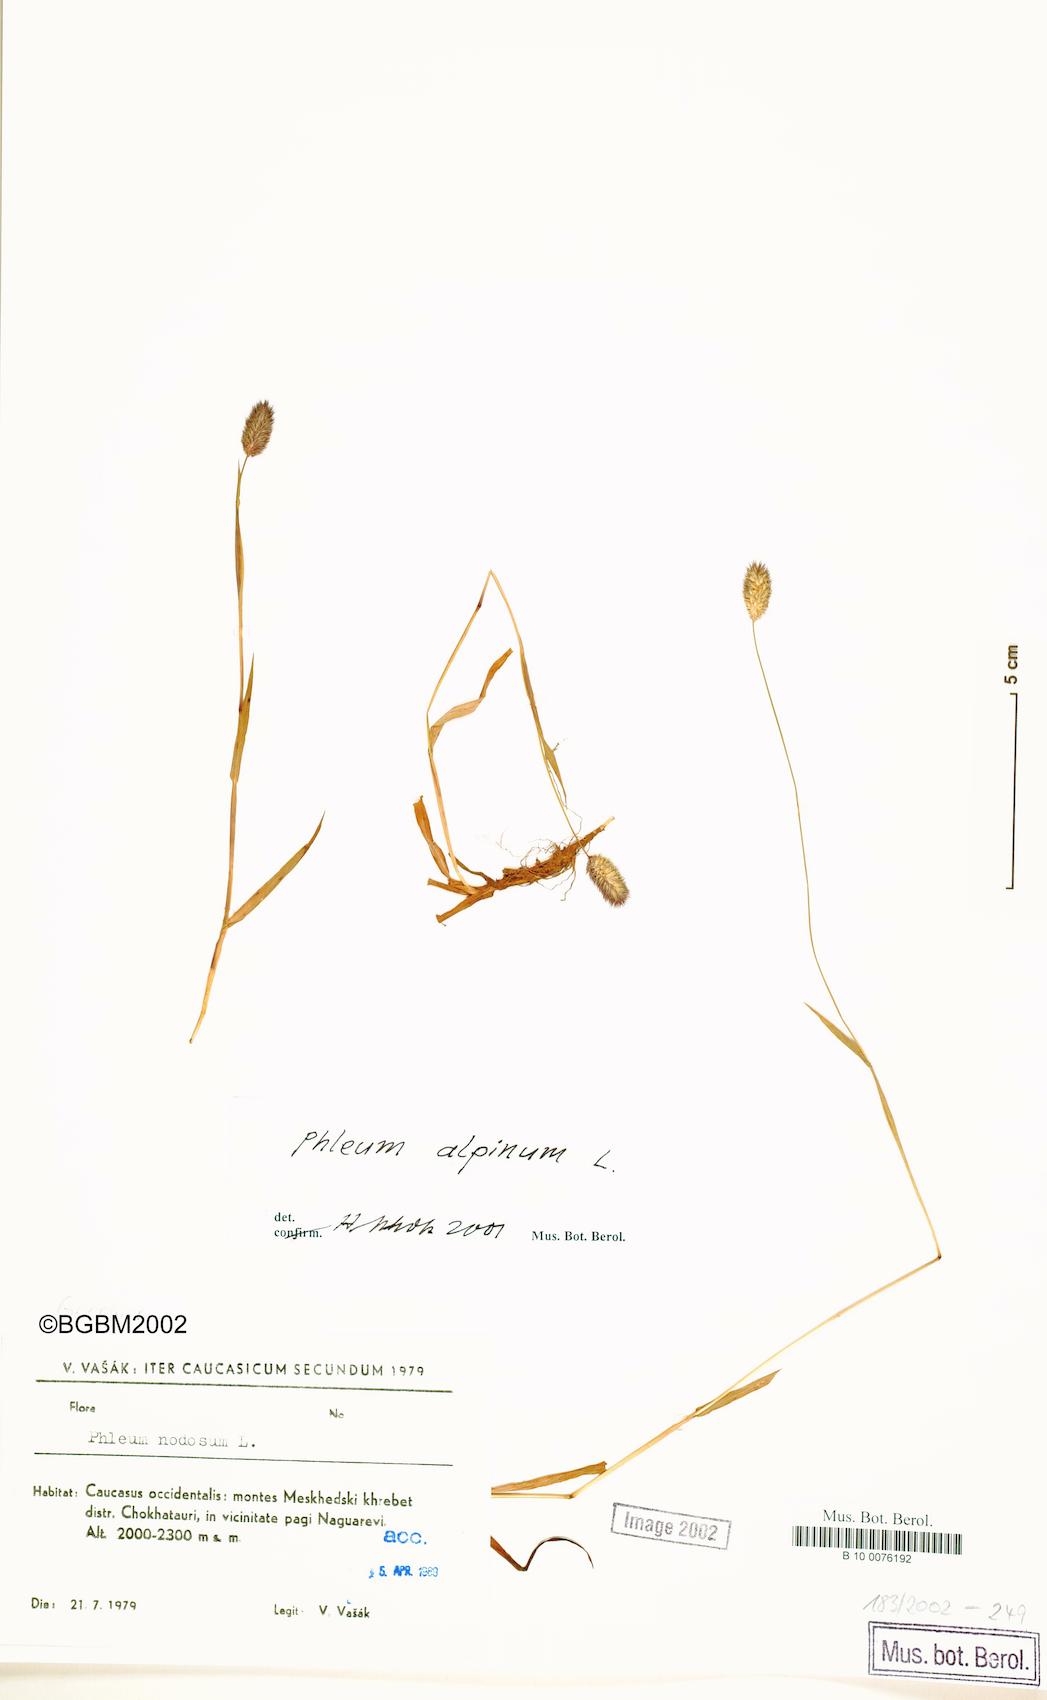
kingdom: Plantae
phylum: Tracheophyta
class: Liliopsida
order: Poales
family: Poaceae
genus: Phleum
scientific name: Phleum alpinum
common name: Alpine cat's-tail
